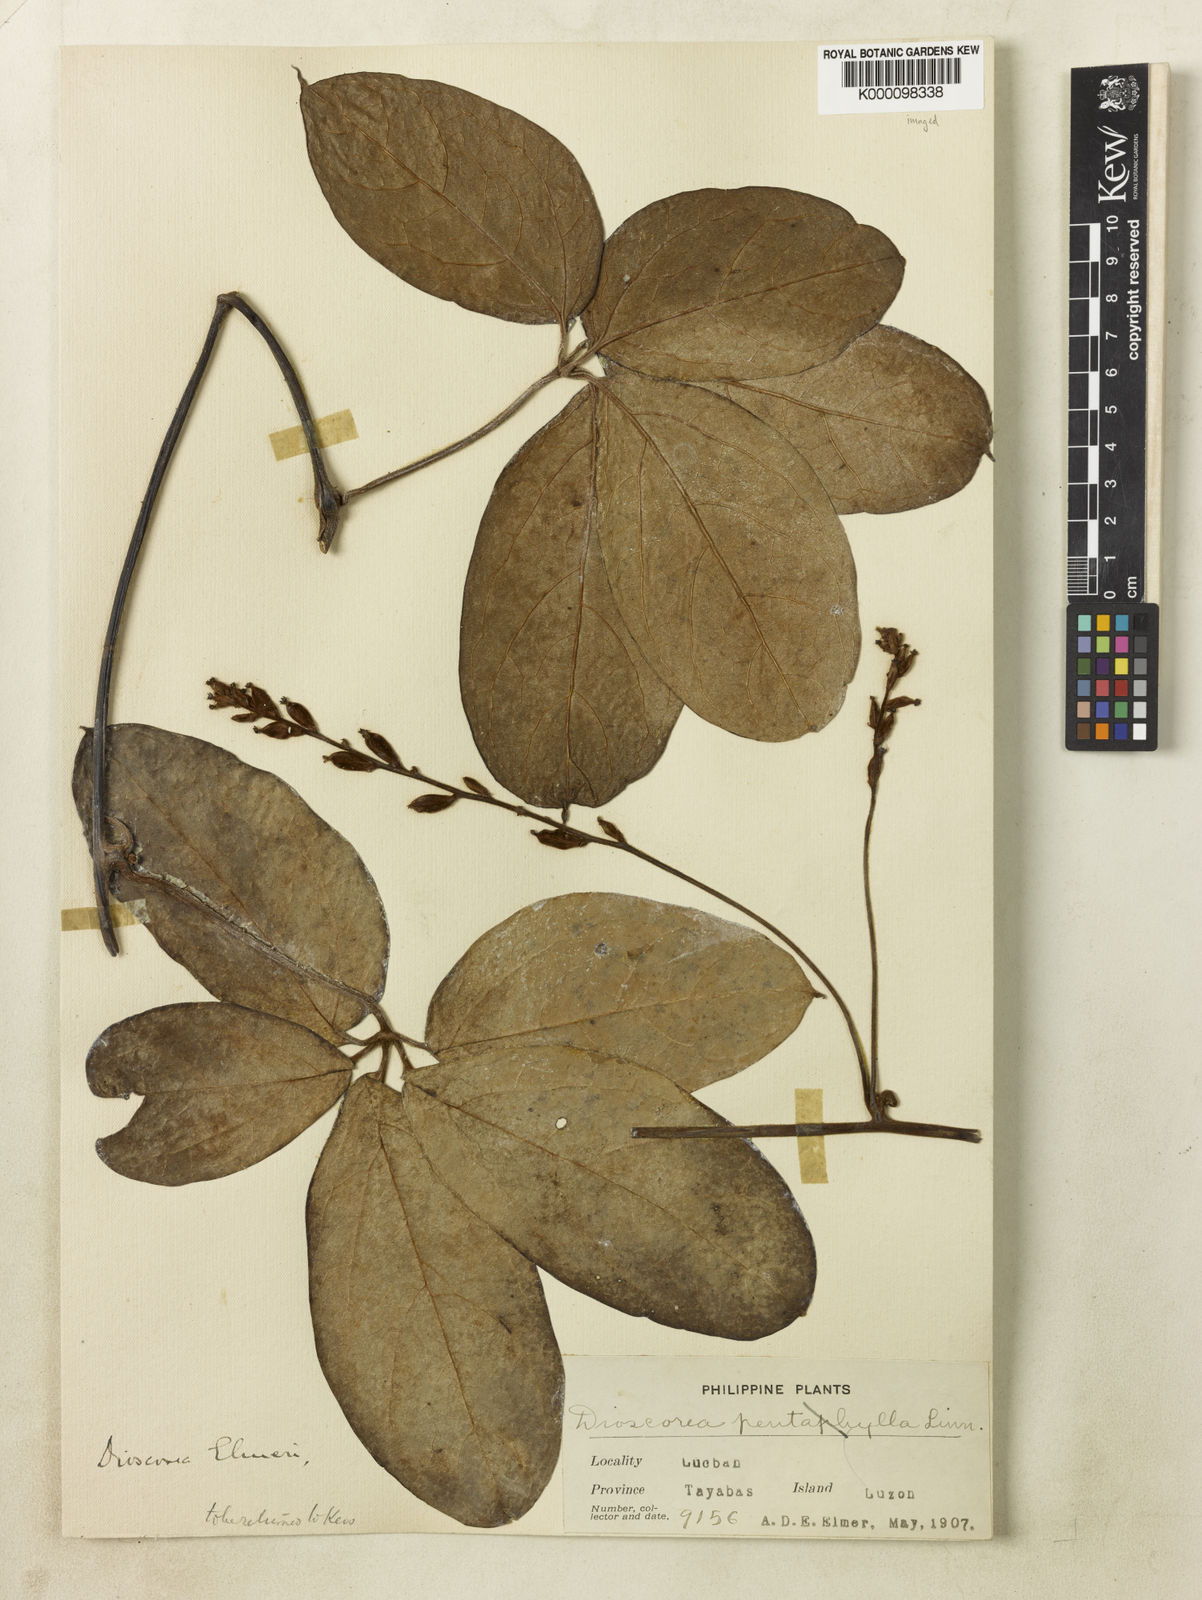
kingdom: Plantae
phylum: Tracheophyta
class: Liliopsida
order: Dioscoreales
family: Dioscoreaceae
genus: Dioscorea
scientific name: Dioscorea cumingii
